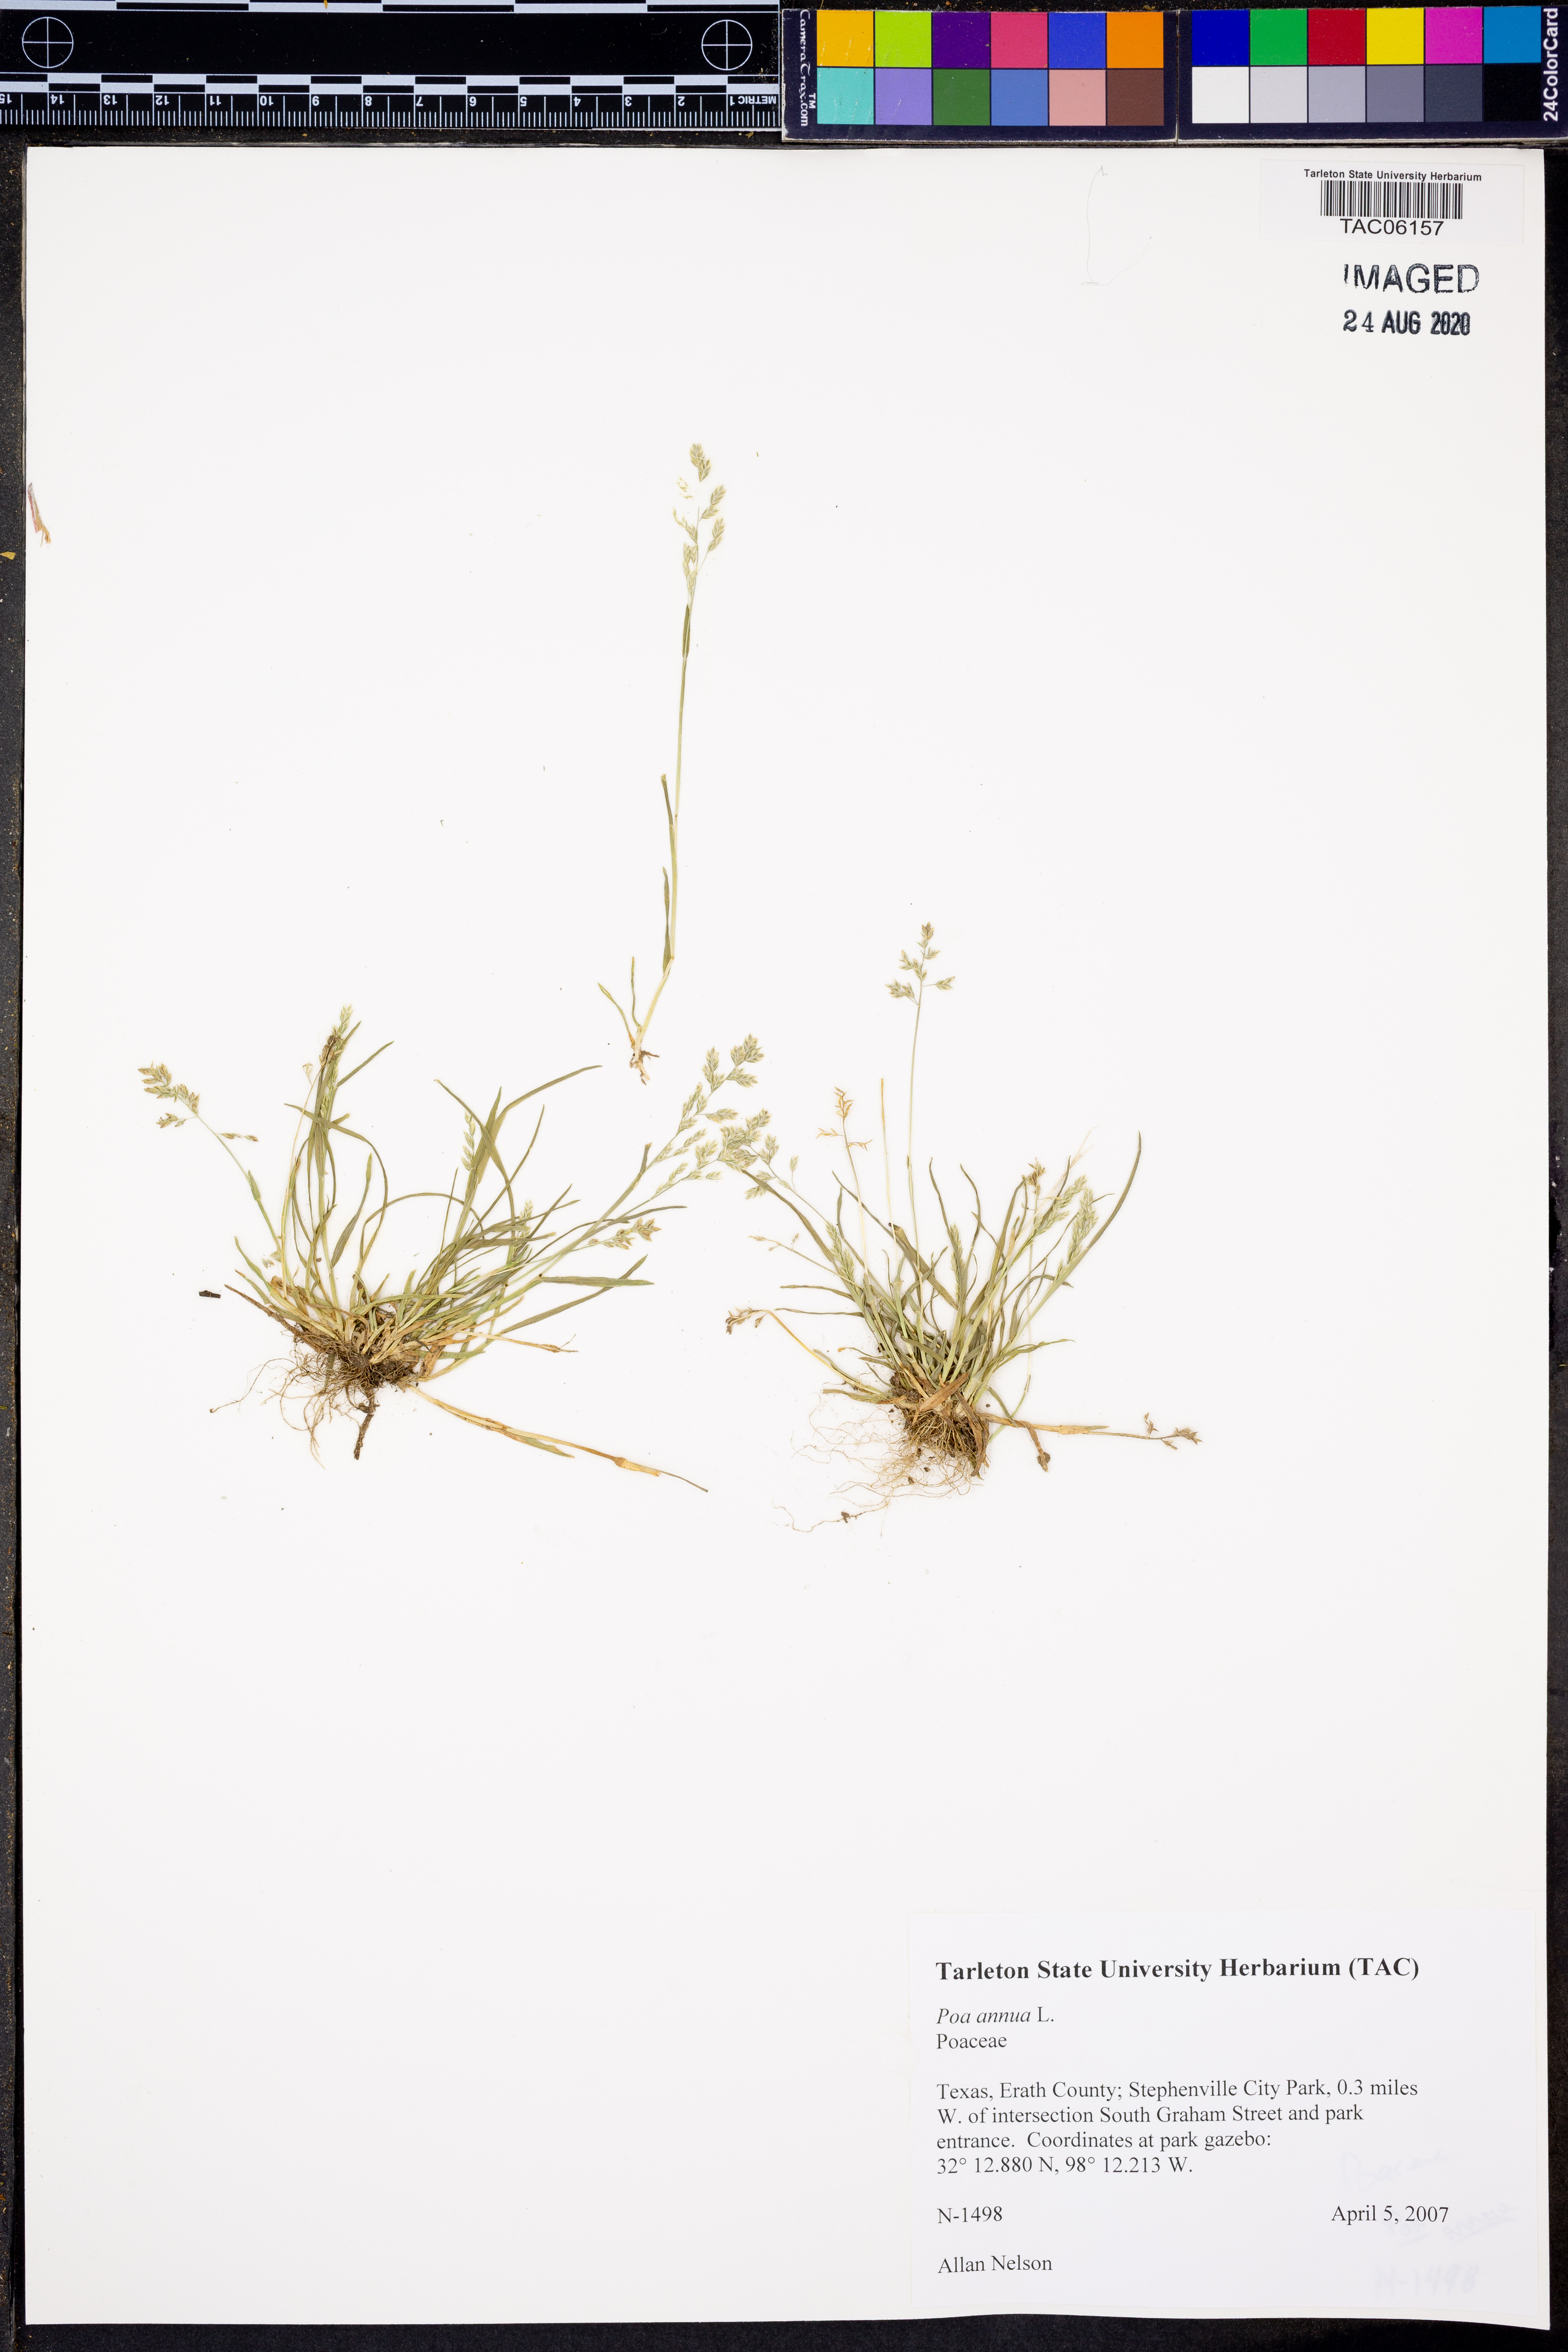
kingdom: Plantae
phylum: Tracheophyta
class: Liliopsida
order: Poales
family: Poaceae
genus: Poa
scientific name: Poa annua
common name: Annual bluegrass
